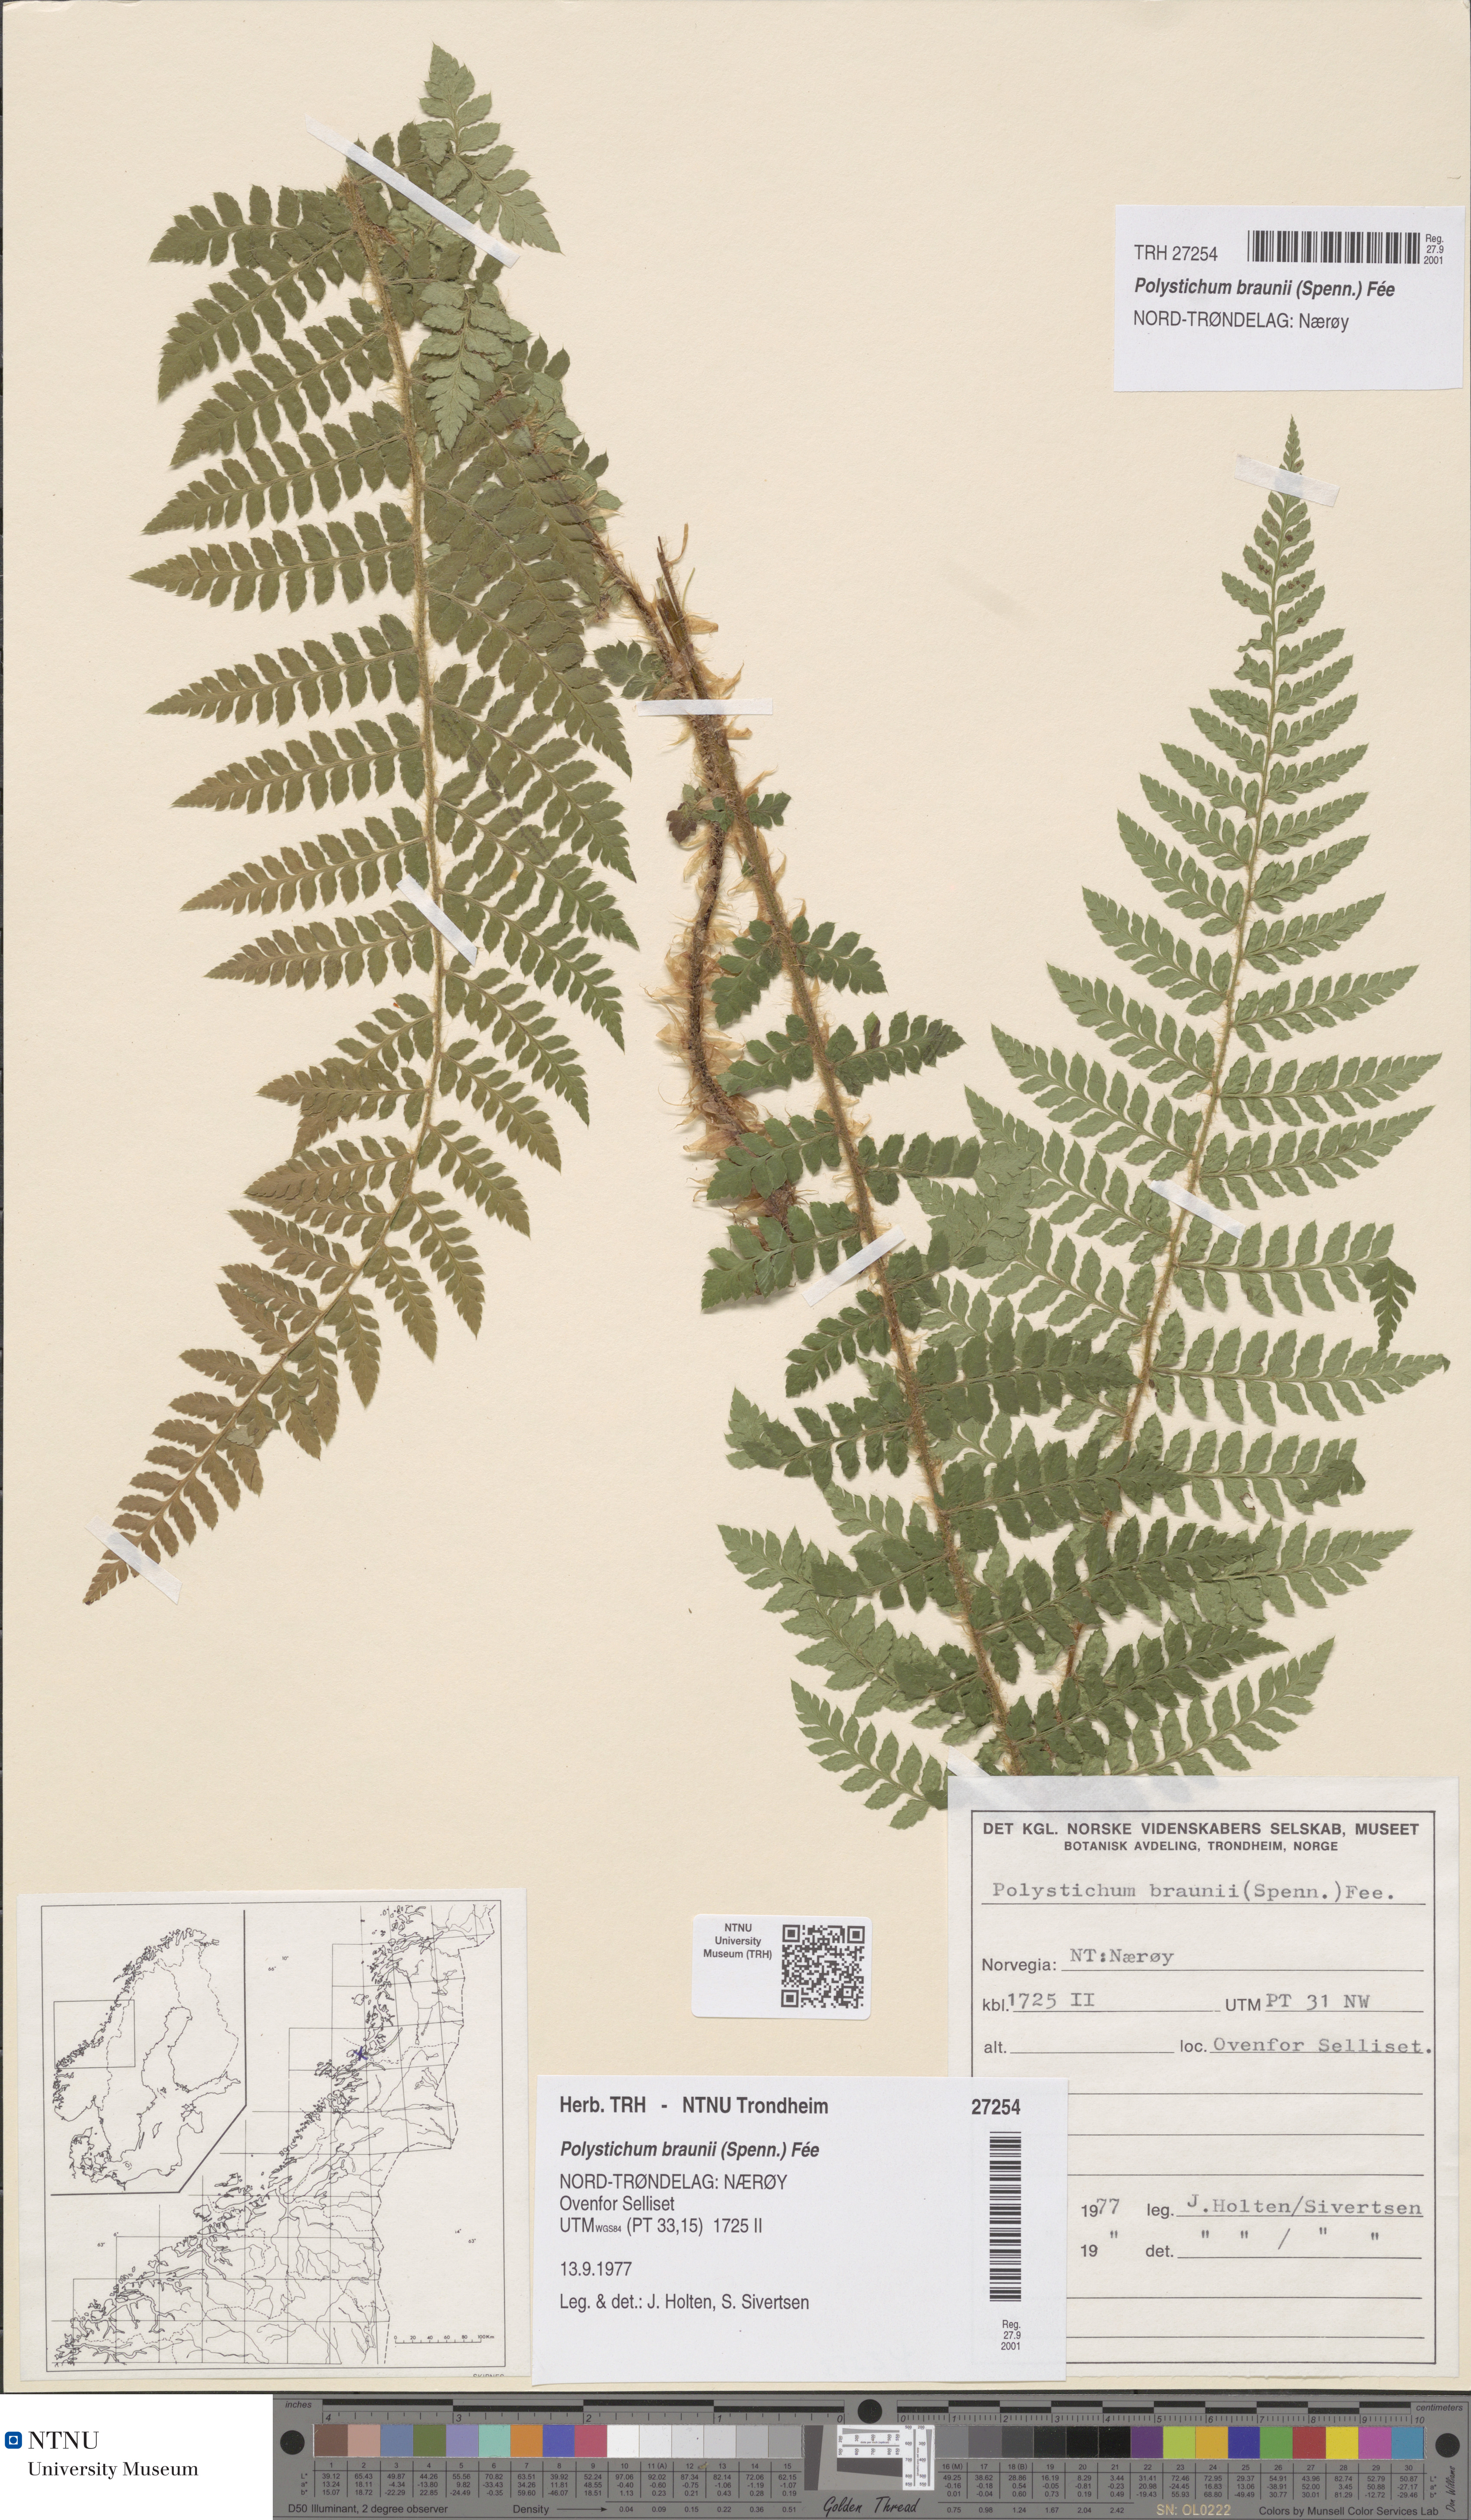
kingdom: Plantae
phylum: Tracheophyta
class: Polypodiopsida
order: Polypodiales
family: Dryopteridaceae
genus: Polystichum
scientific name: Polystichum braunii
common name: Braun's holly fern
